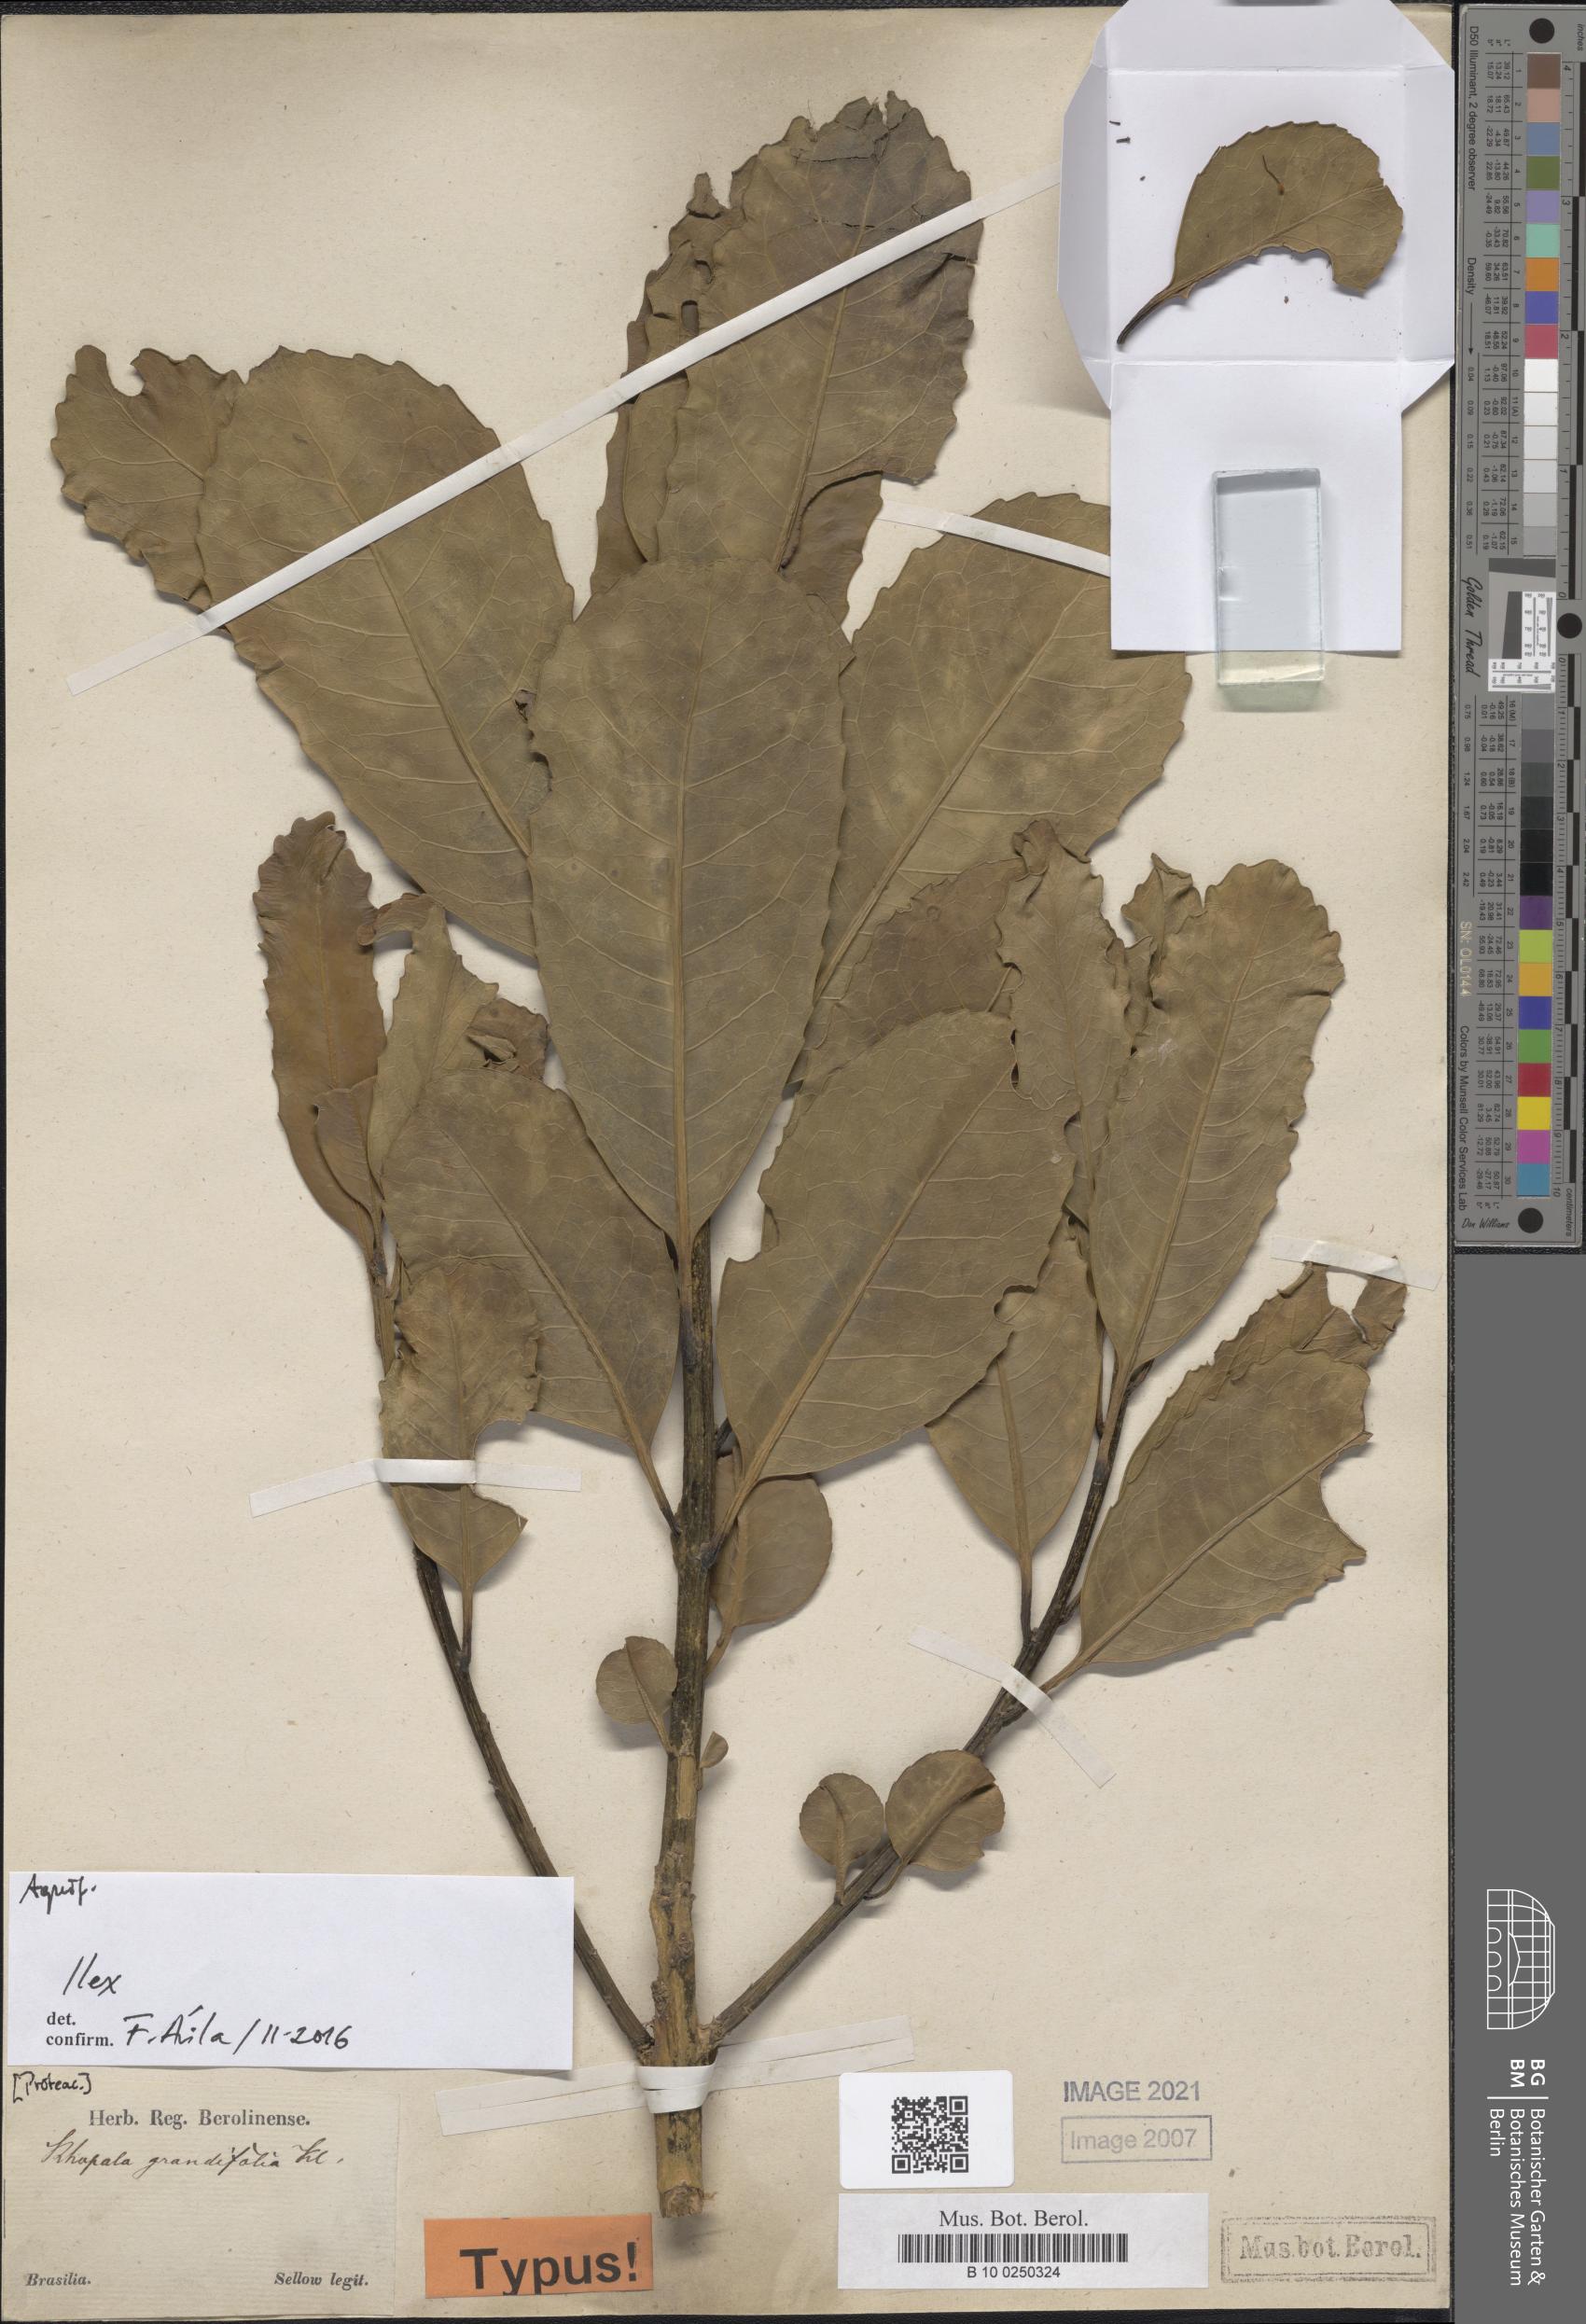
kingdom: Plantae
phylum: Tracheophyta
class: Magnoliopsida
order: Aquifoliales
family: Aquifoliaceae
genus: Ilex
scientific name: Ilex
